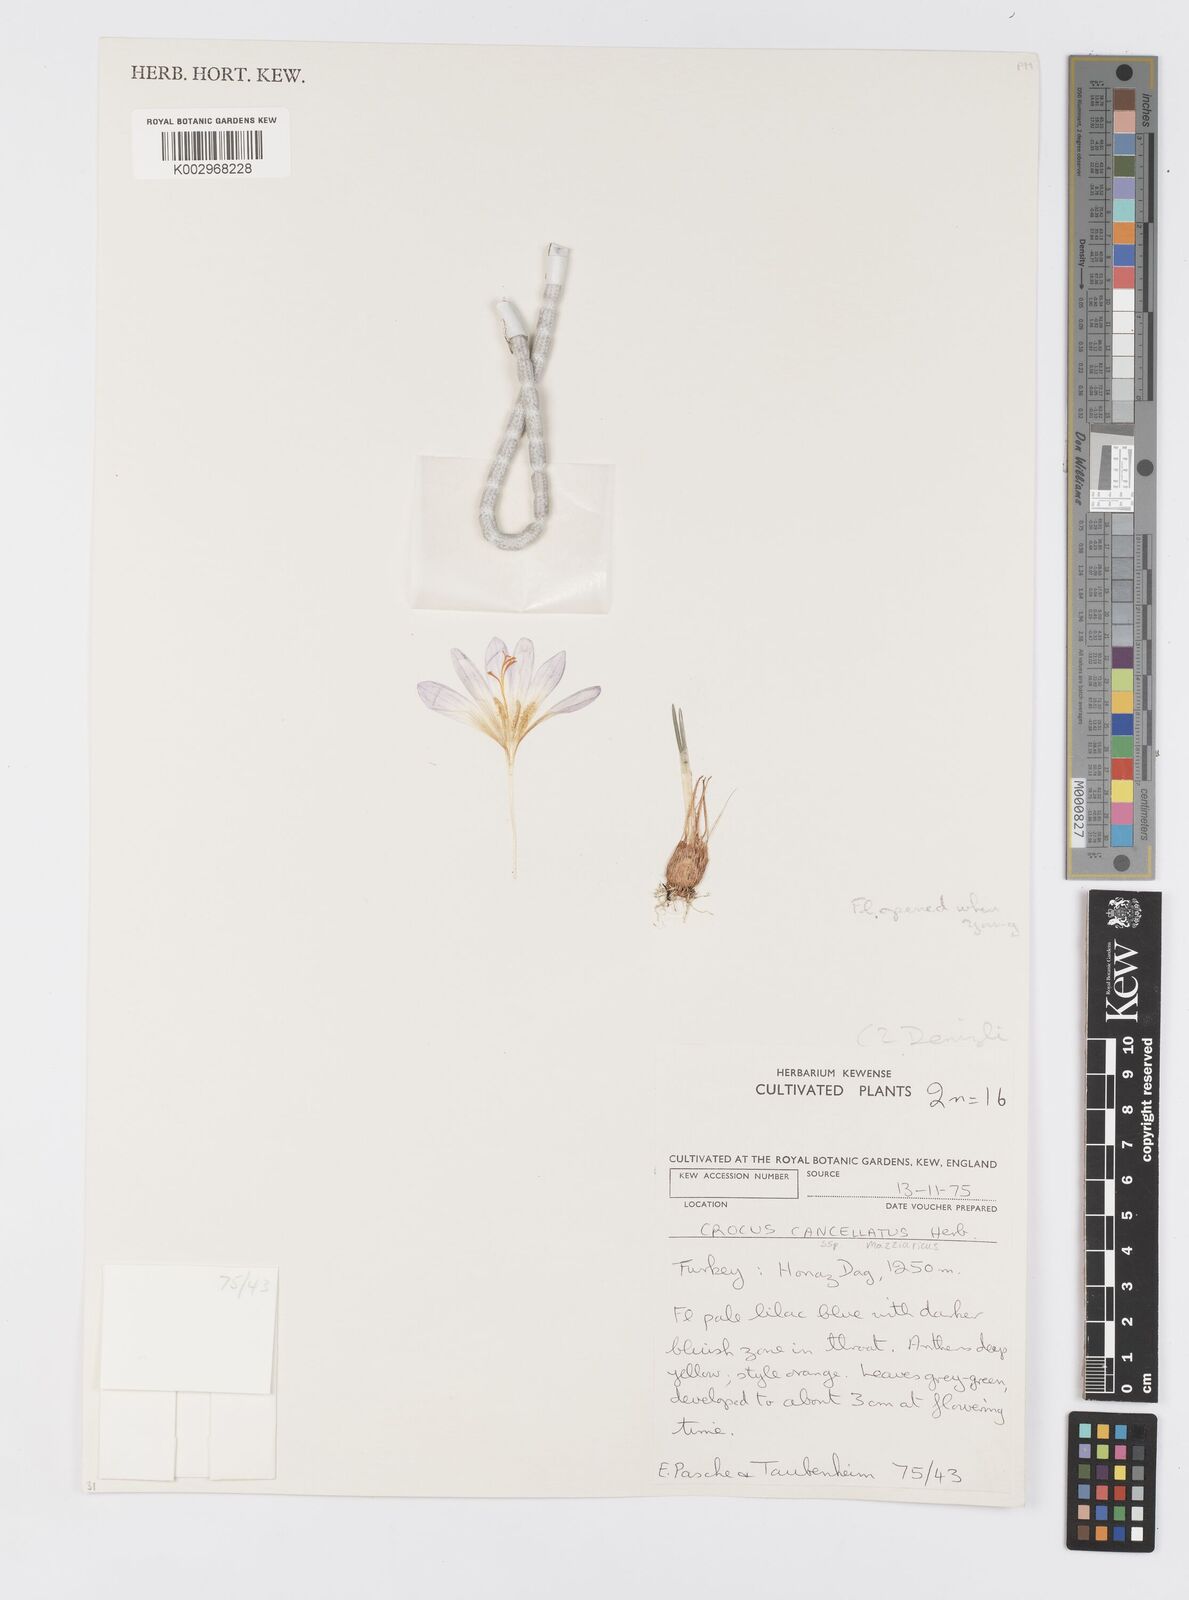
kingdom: Plantae
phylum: Tracheophyta
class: Liliopsida
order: Asparagales
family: Iridaceae
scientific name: Iridaceae
